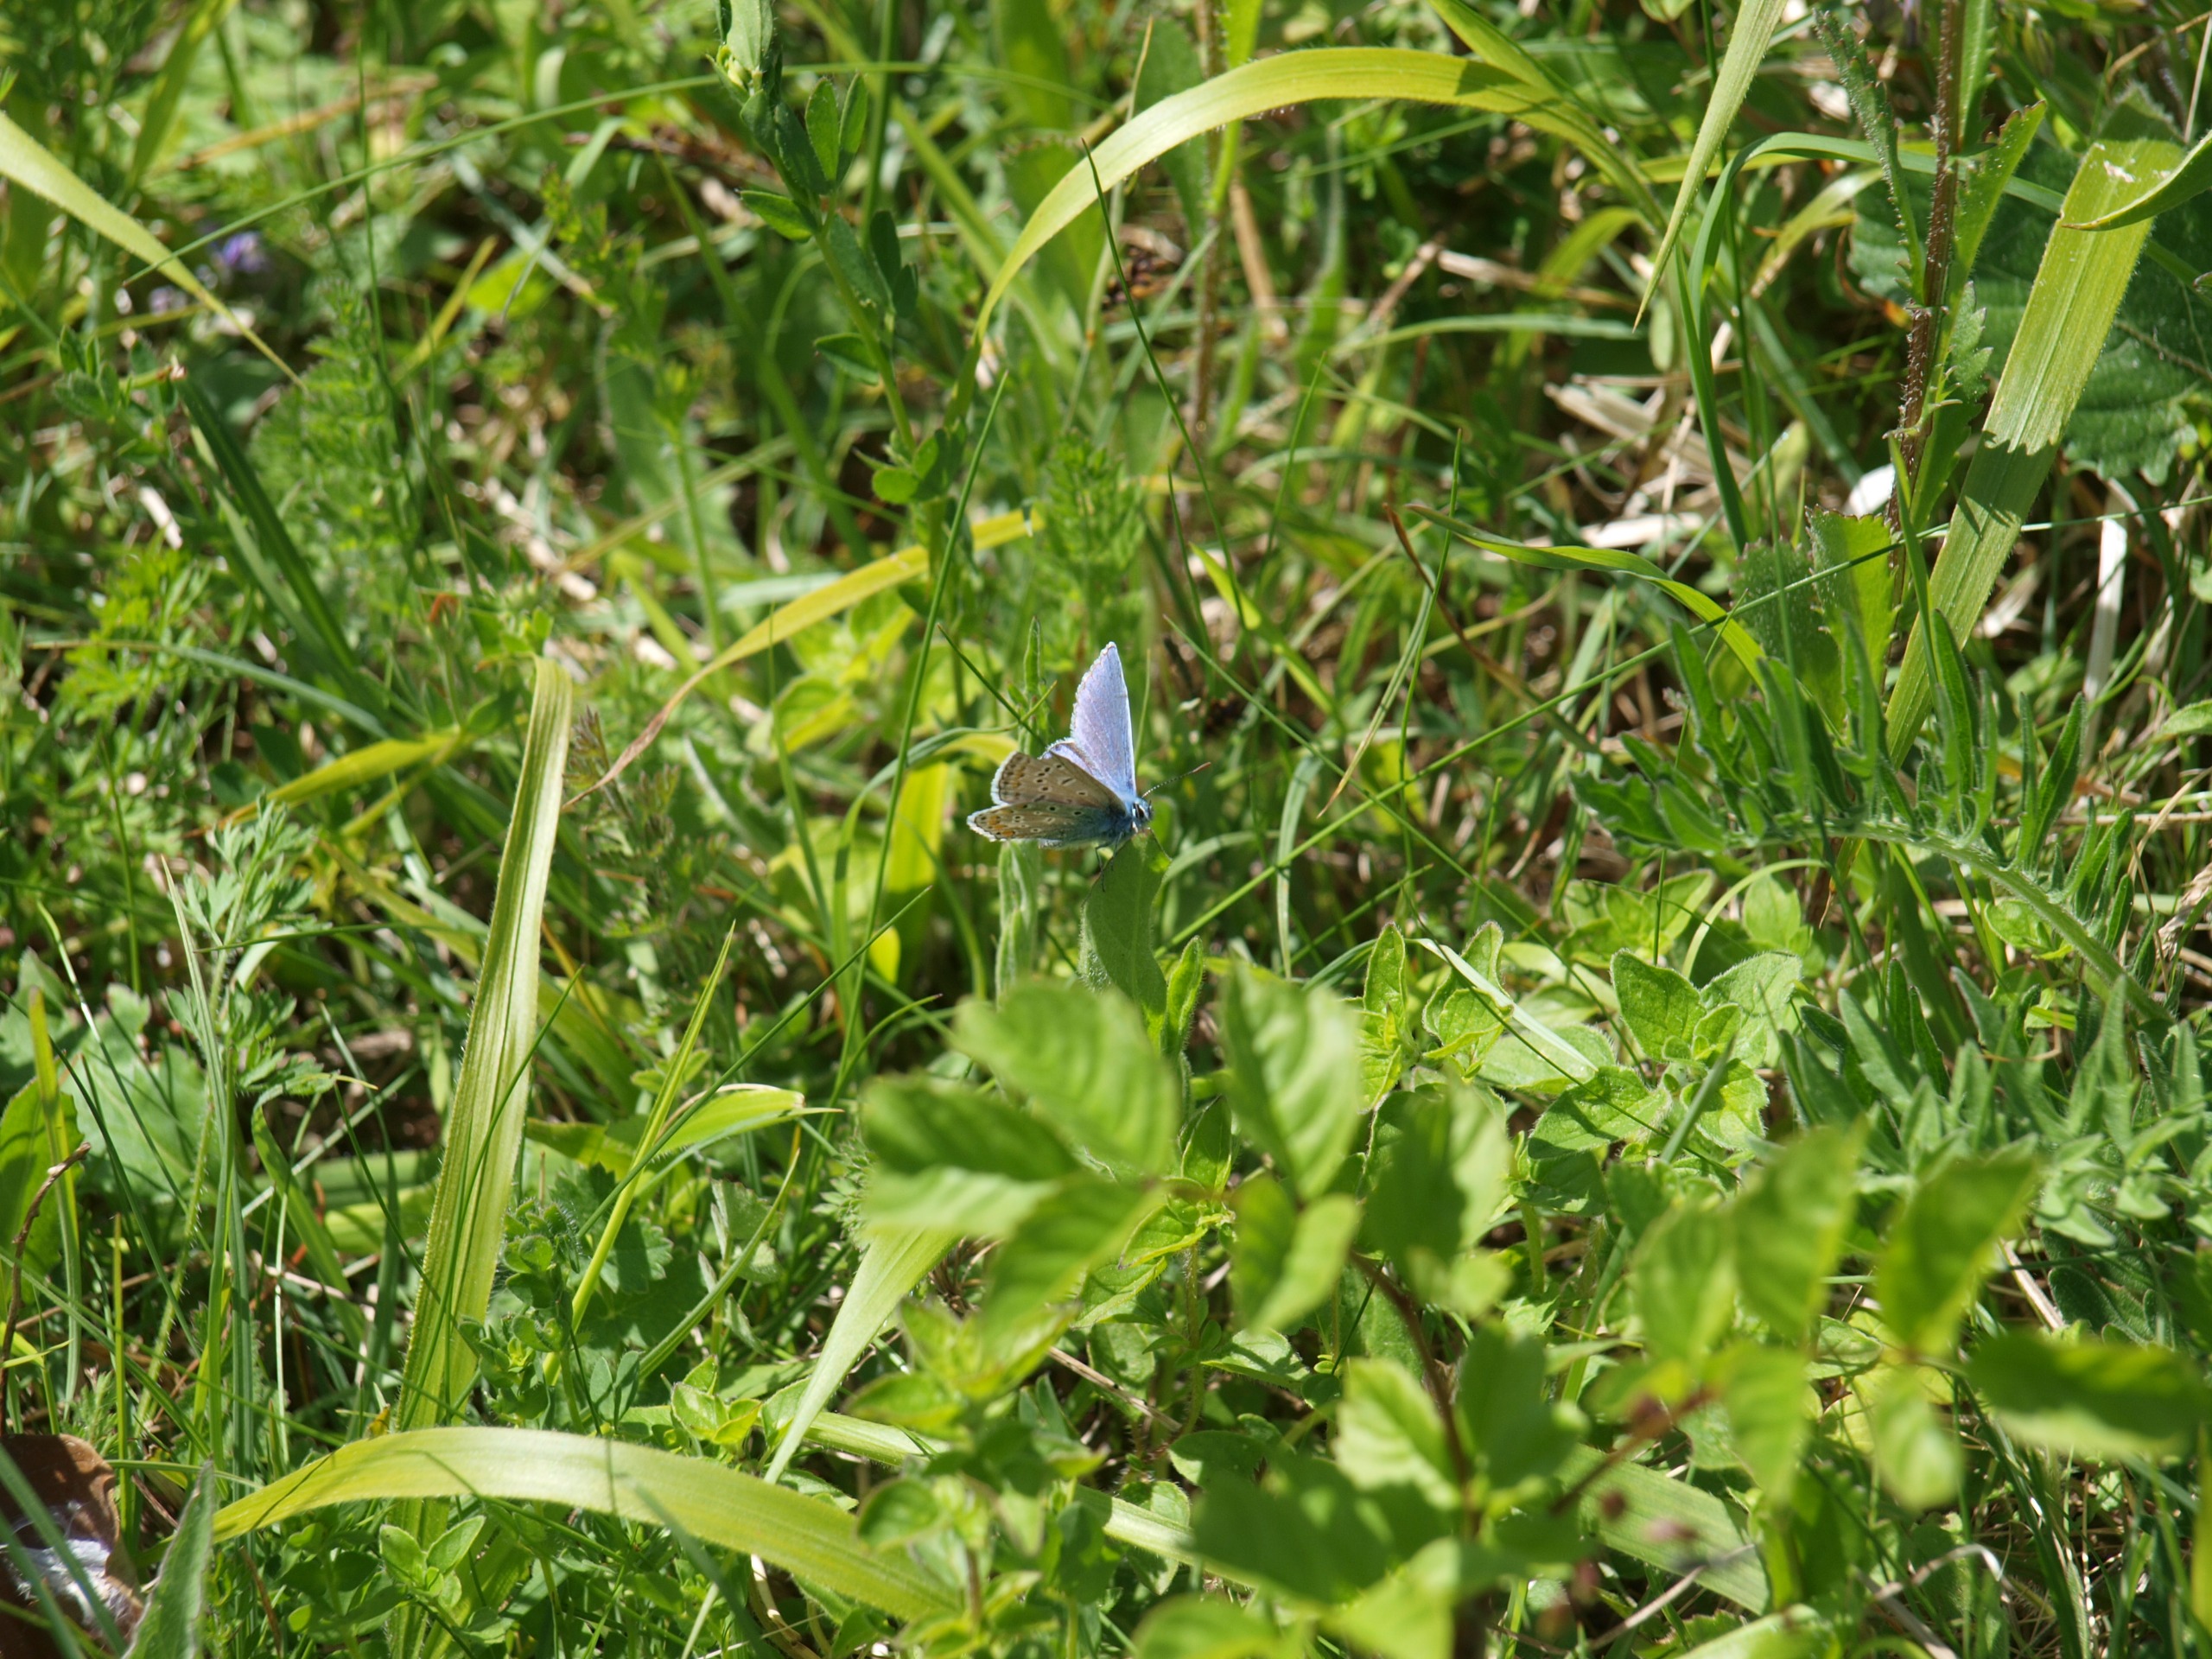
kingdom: Animalia
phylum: Arthropoda
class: Insecta
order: Lepidoptera
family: Lycaenidae
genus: Polyommatus
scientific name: Polyommatus icarus
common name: Almindelig blåfugl
